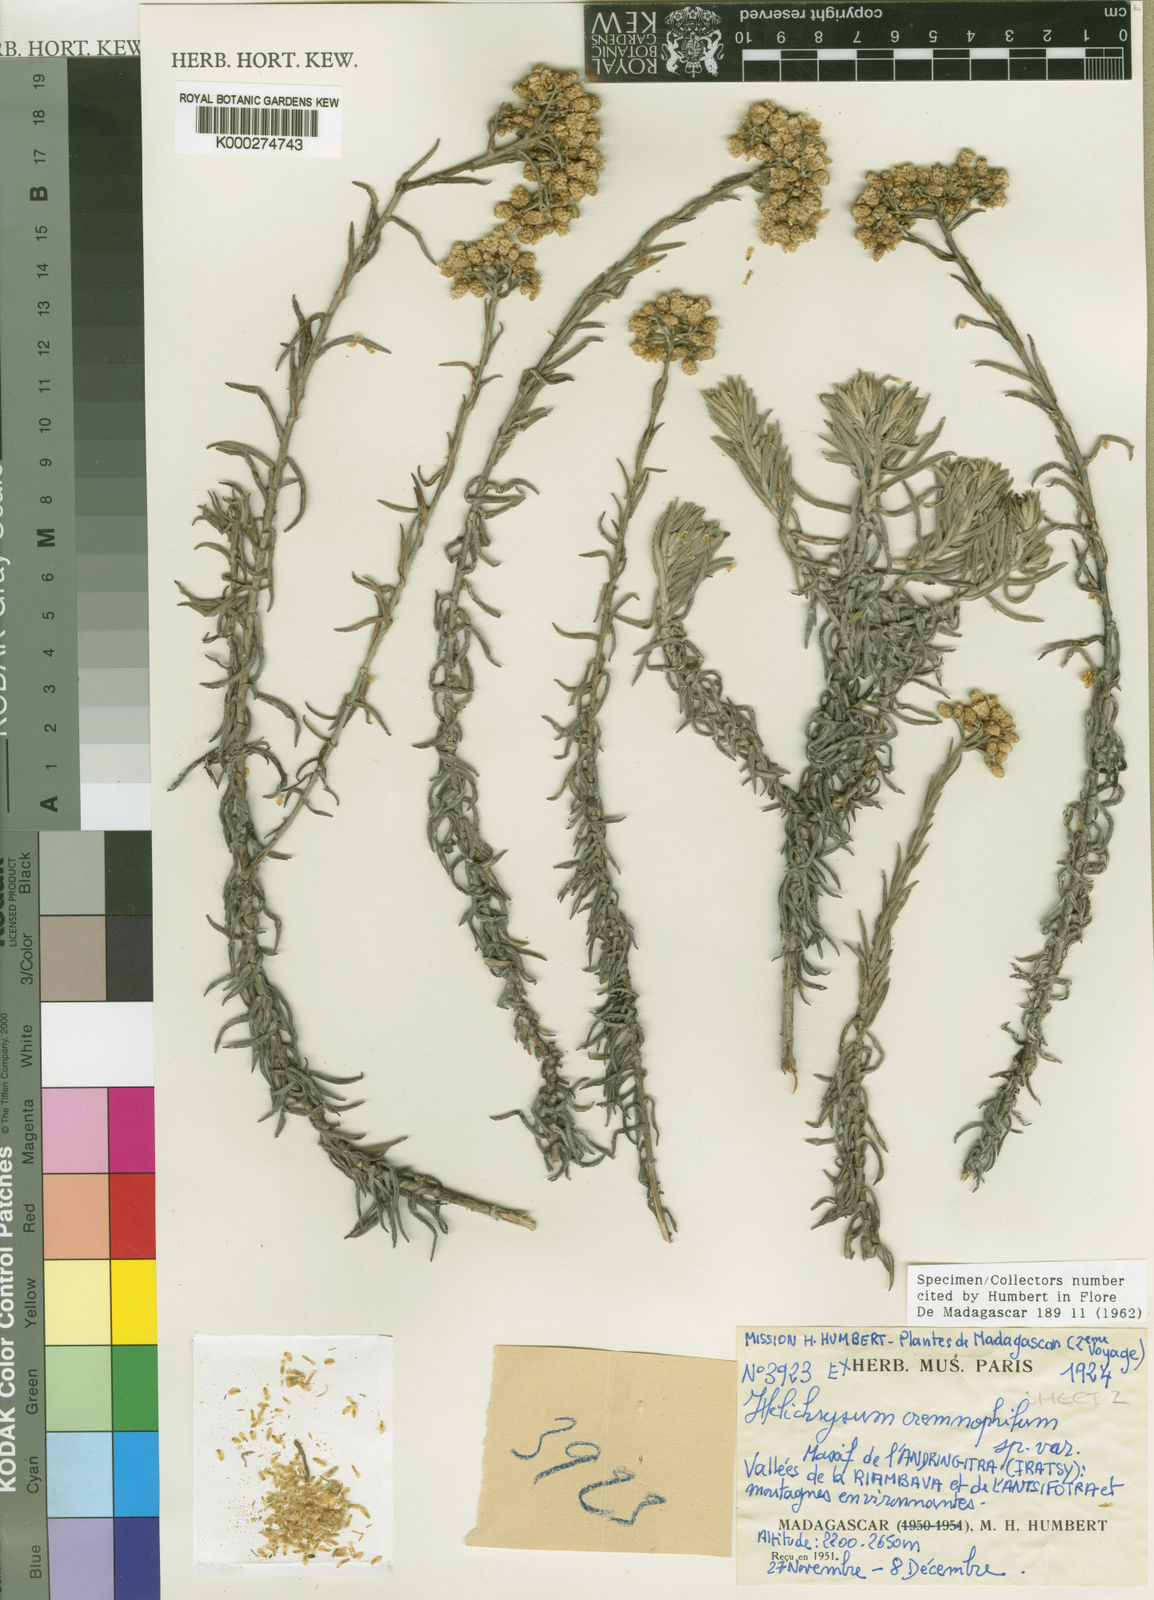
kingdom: Plantae
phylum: Tracheophyta
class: Magnoliopsida
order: Asterales
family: Asteraceae
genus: Helichrysum
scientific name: Helichrysum cremnophilum
